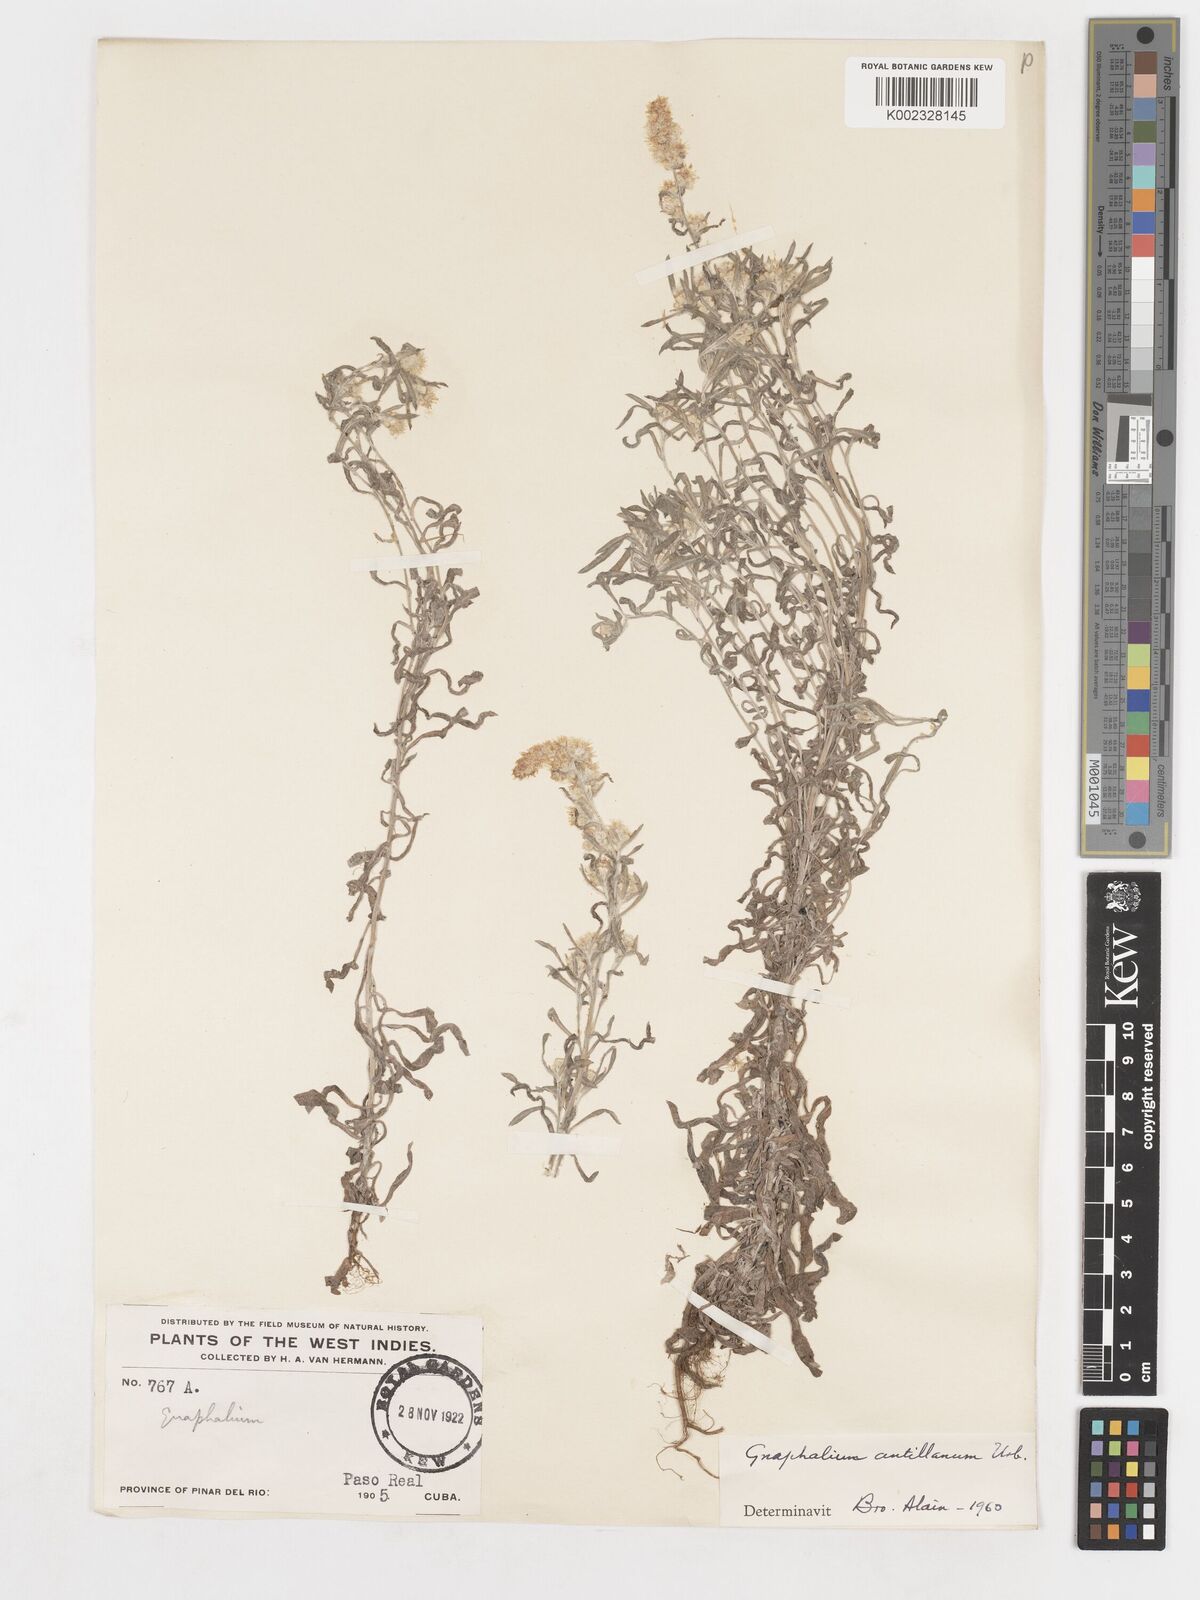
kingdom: Plantae
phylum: Tracheophyta
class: Magnoliopsida
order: Asterales
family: Asteraceae
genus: Gamochaeta
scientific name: Gamochaeta antillana
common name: Delicate everlasting
